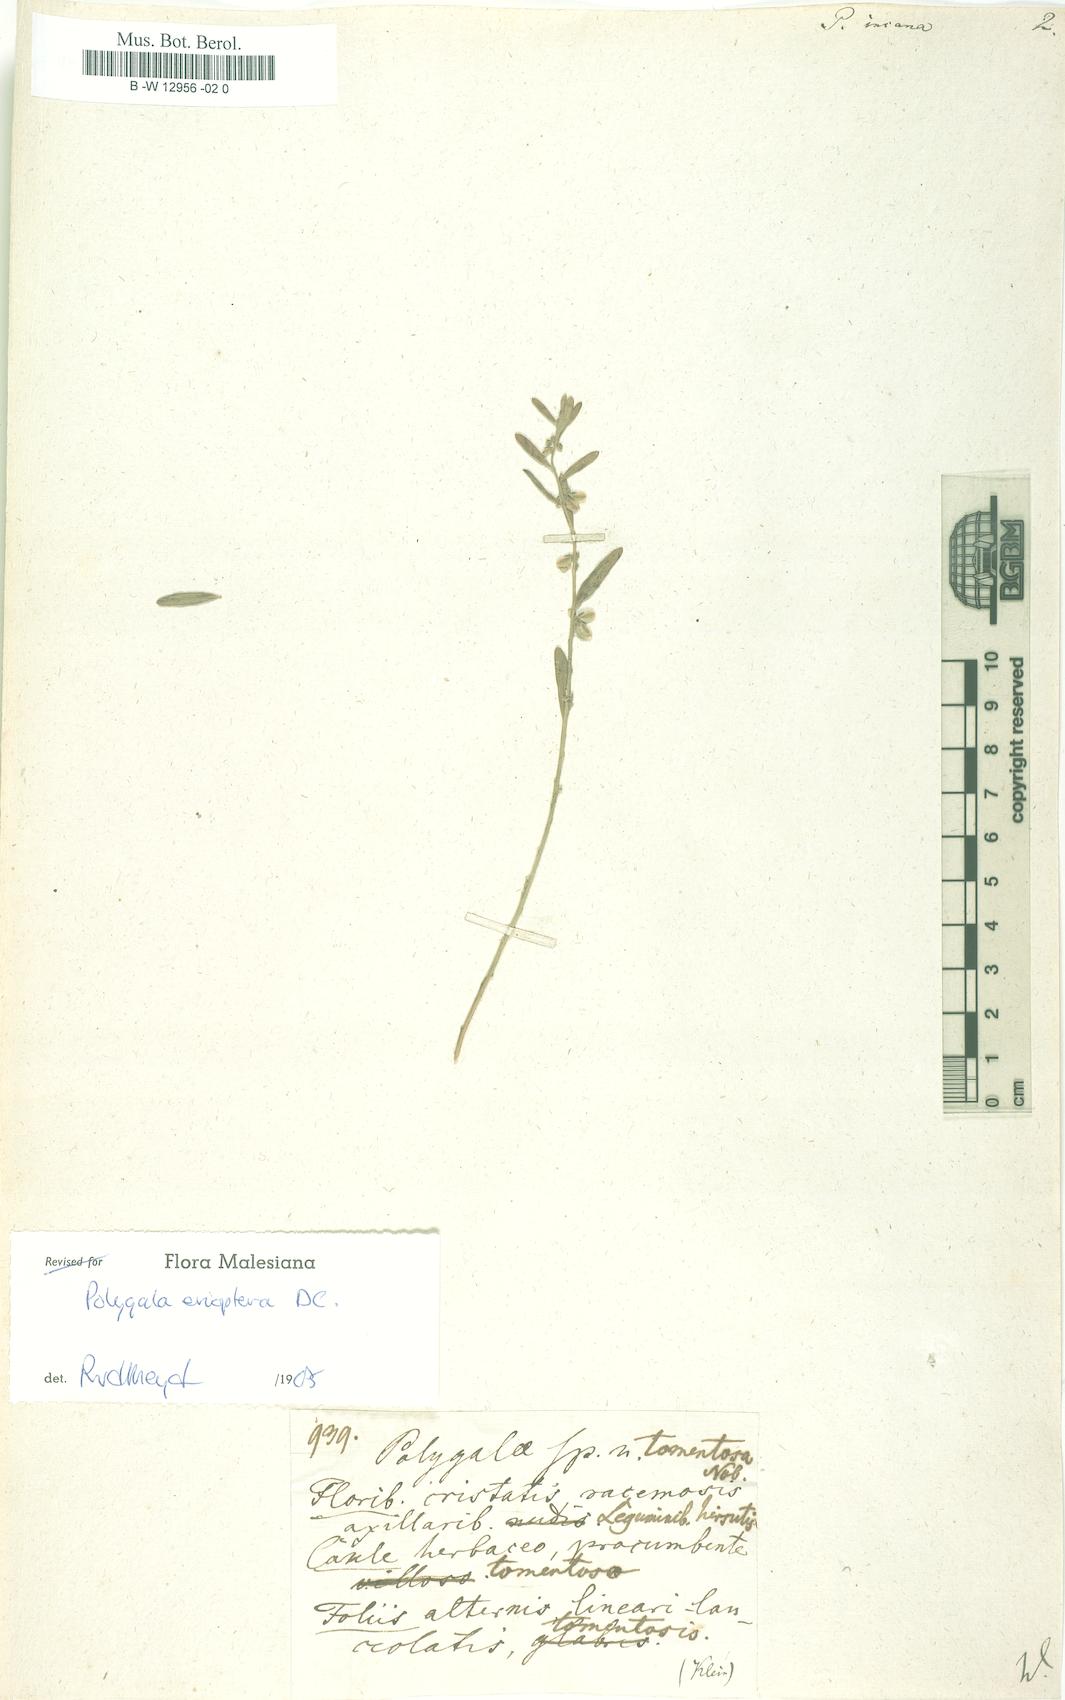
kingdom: Plantae
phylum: Tracheophyta
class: Magnoliopsida
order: Fabales
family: Polygalaceae
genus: Polygala
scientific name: Polygala
